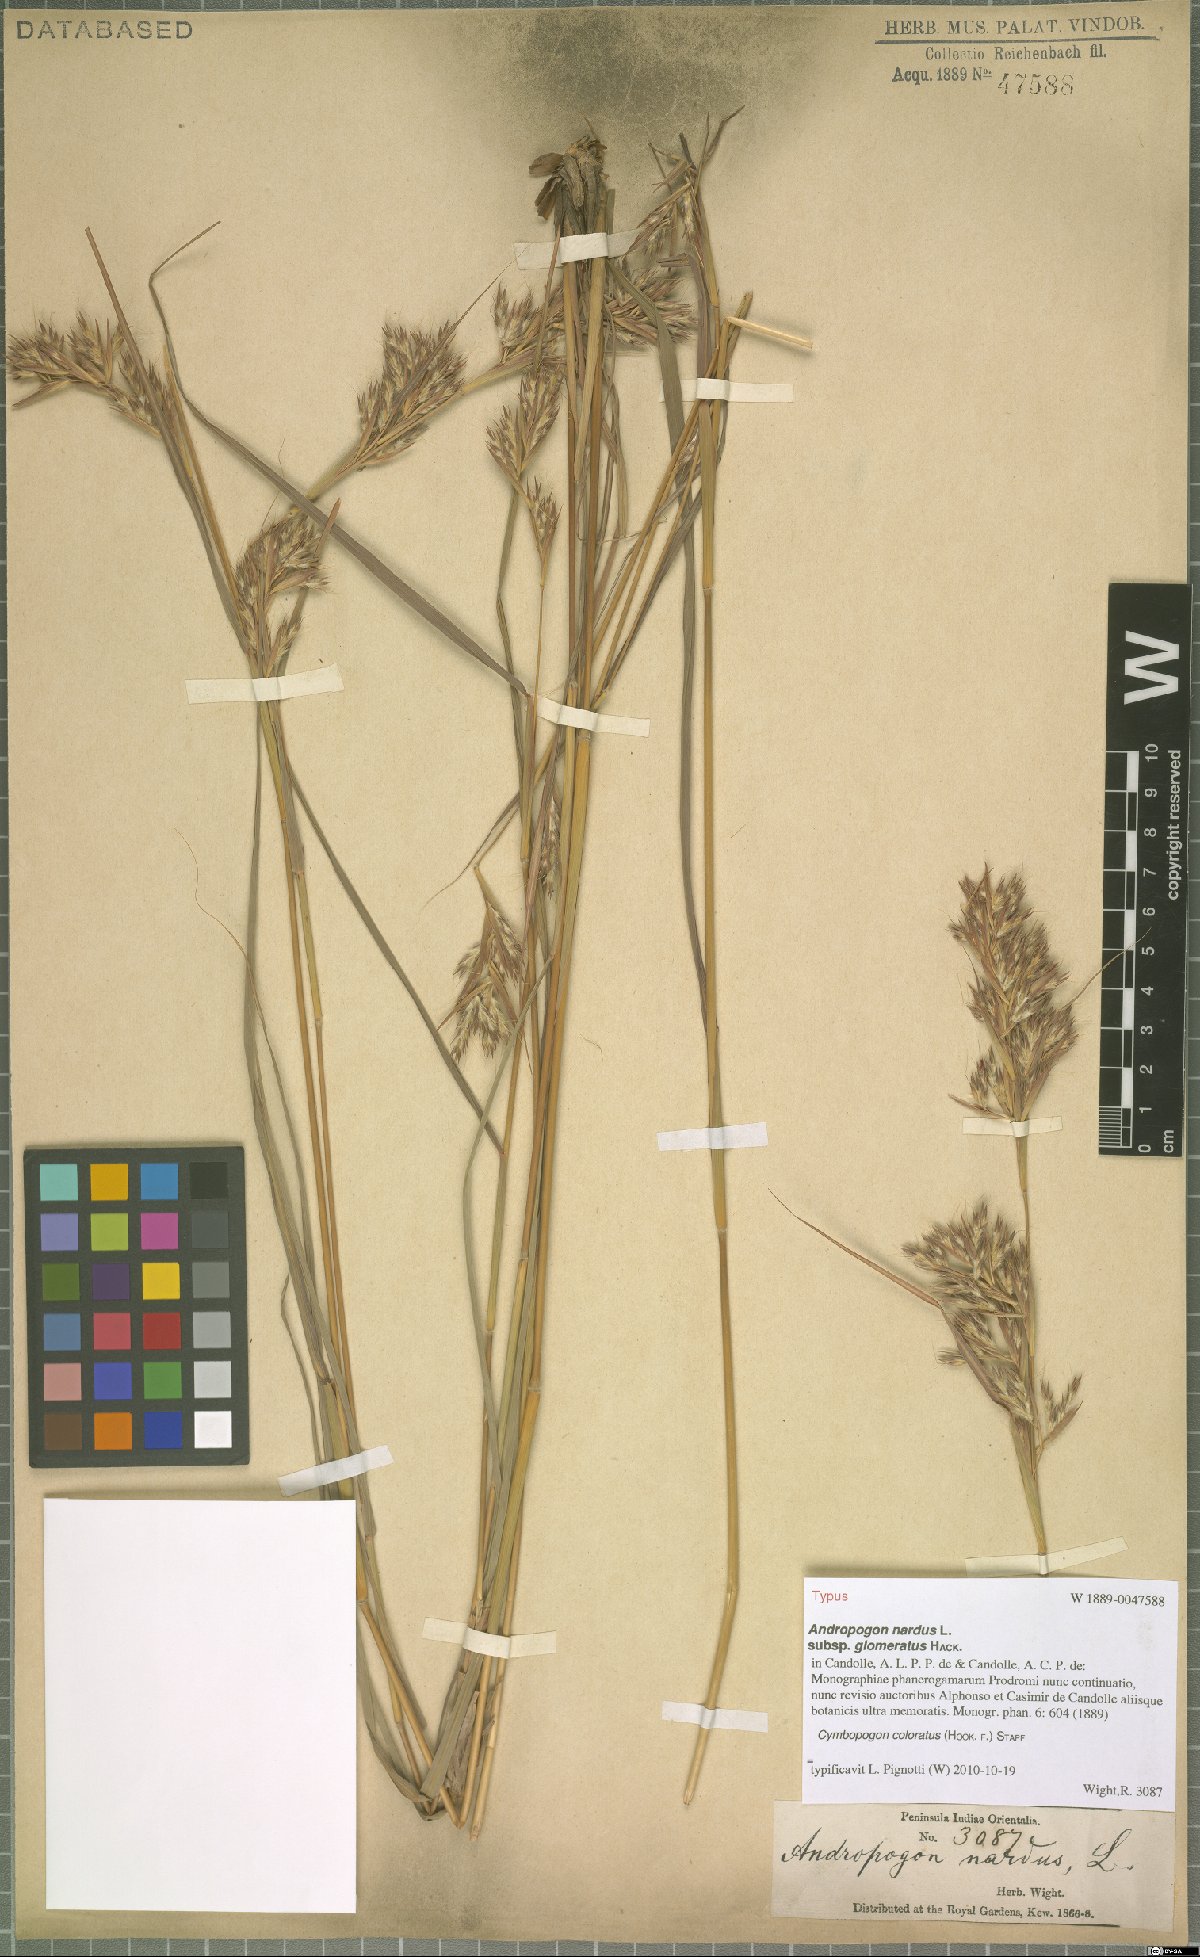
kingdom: Plantae
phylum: Tracheophyta
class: Liliopsida
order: Poales
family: Poaceae
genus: Cymbopogon
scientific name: Cymbopogon coloratus
